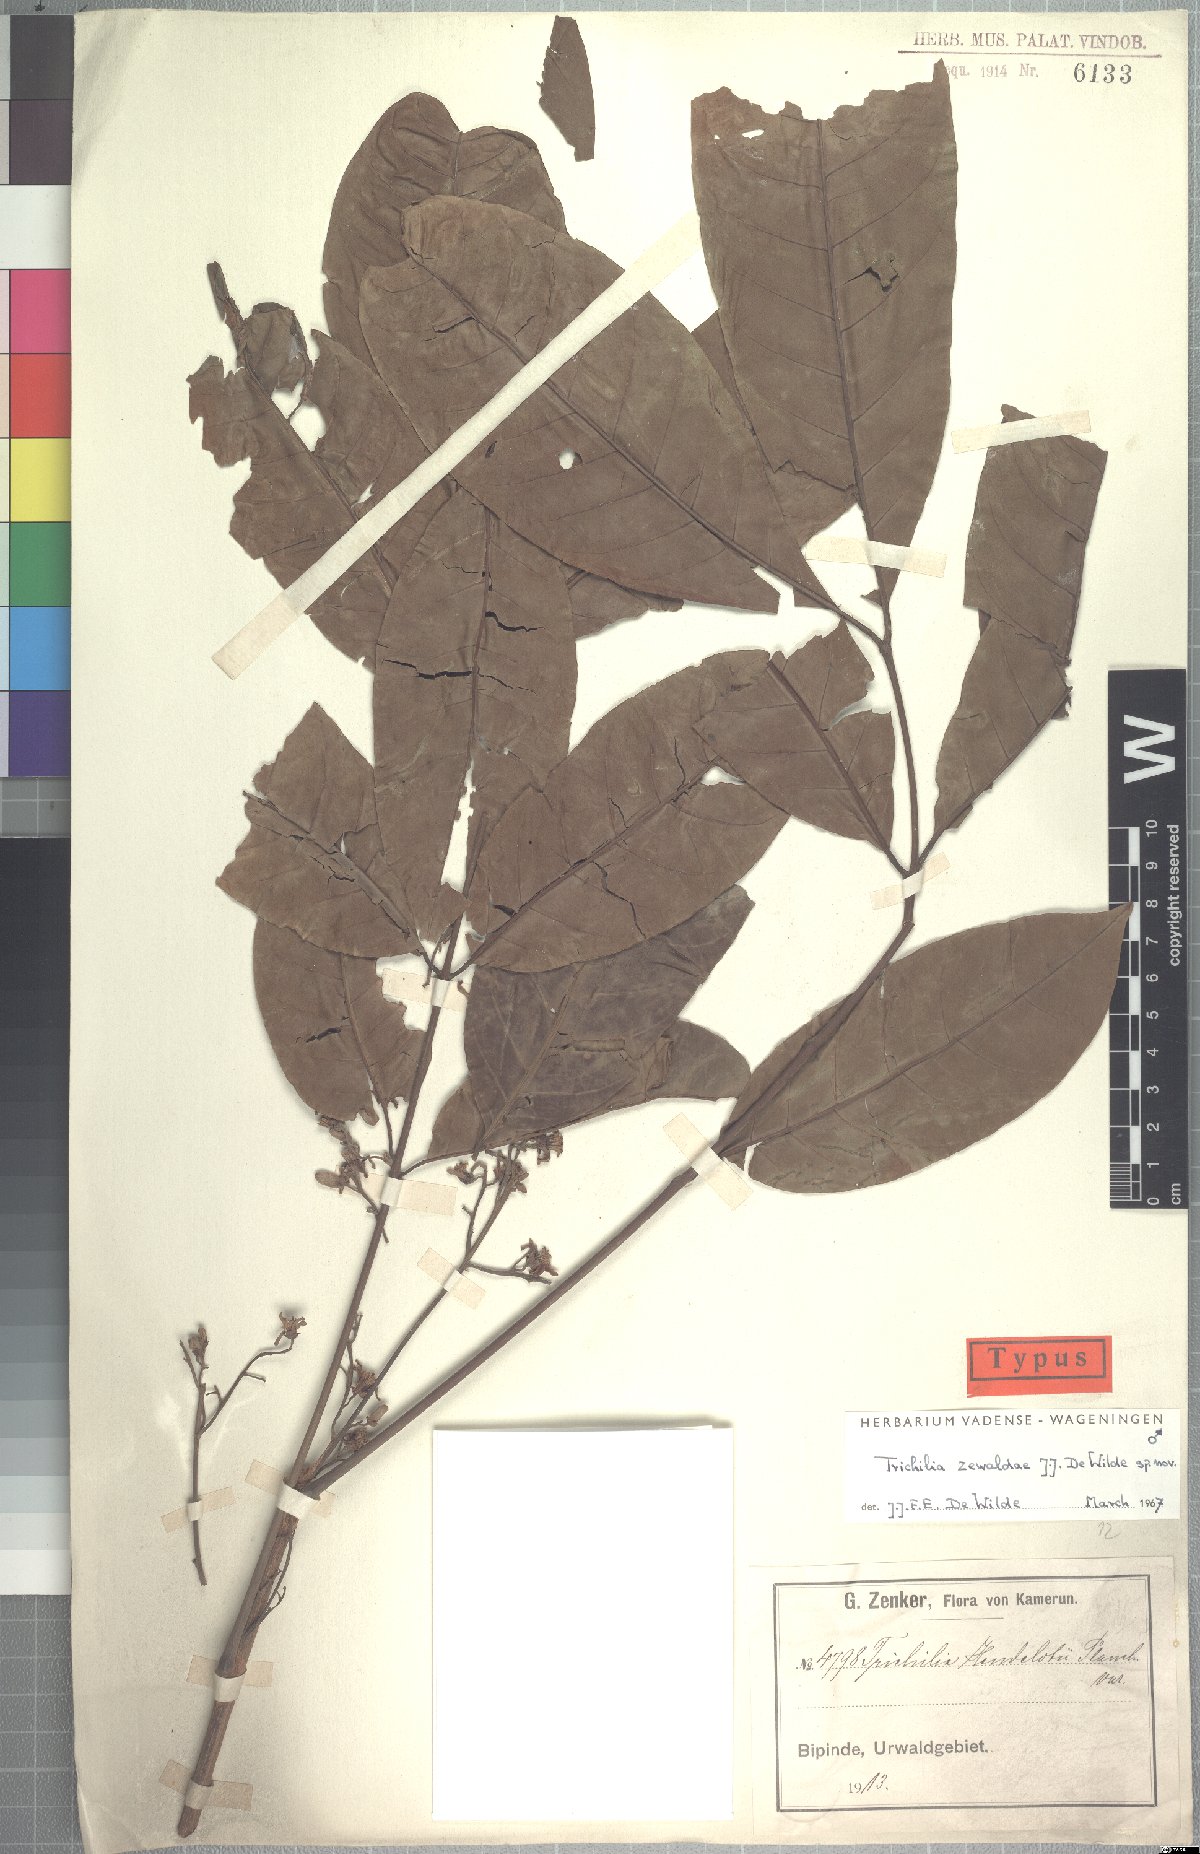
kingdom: Plantae
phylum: Tracheophyta
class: Magnoliopsida
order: Sapindales
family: Meliaceae
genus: Trichilia
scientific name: Trichilia zewaldae
